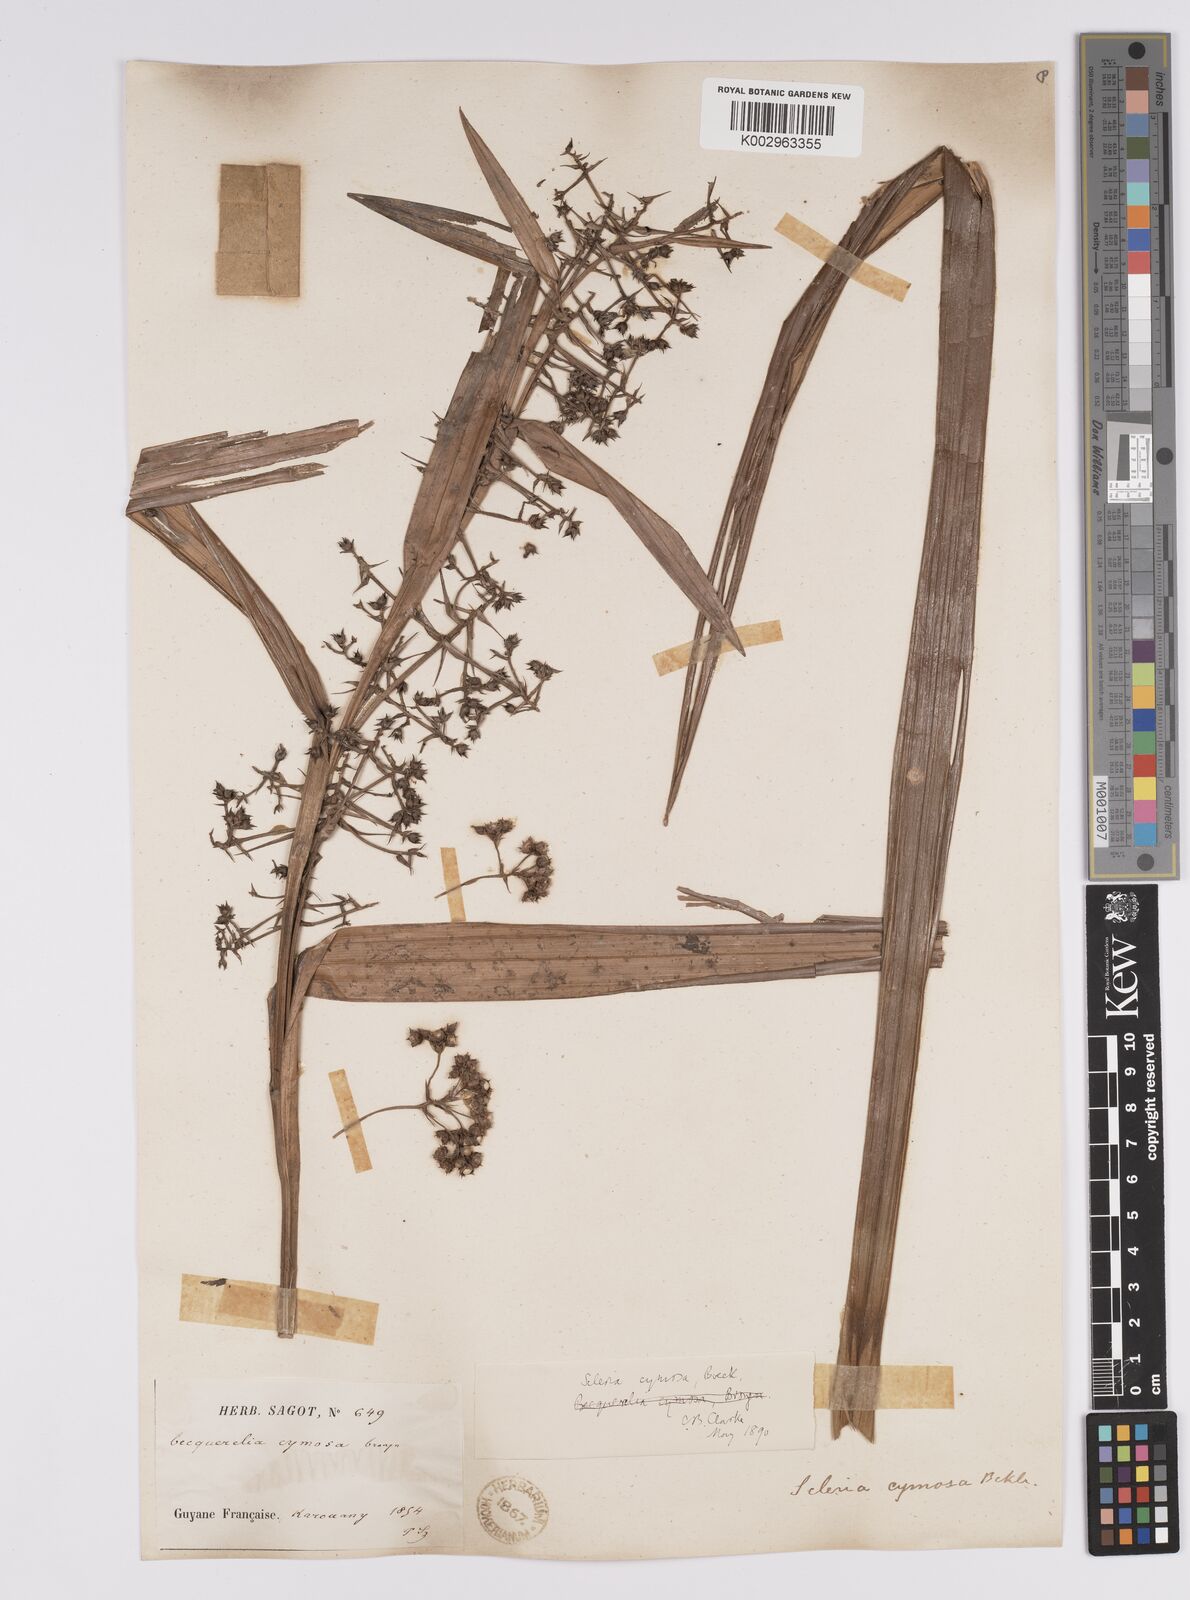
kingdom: Plantae
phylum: Tracheophyta
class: Liliopsida
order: Poales
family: Cyperaceae
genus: Becquerelia
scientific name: Becquerelia cymosa
